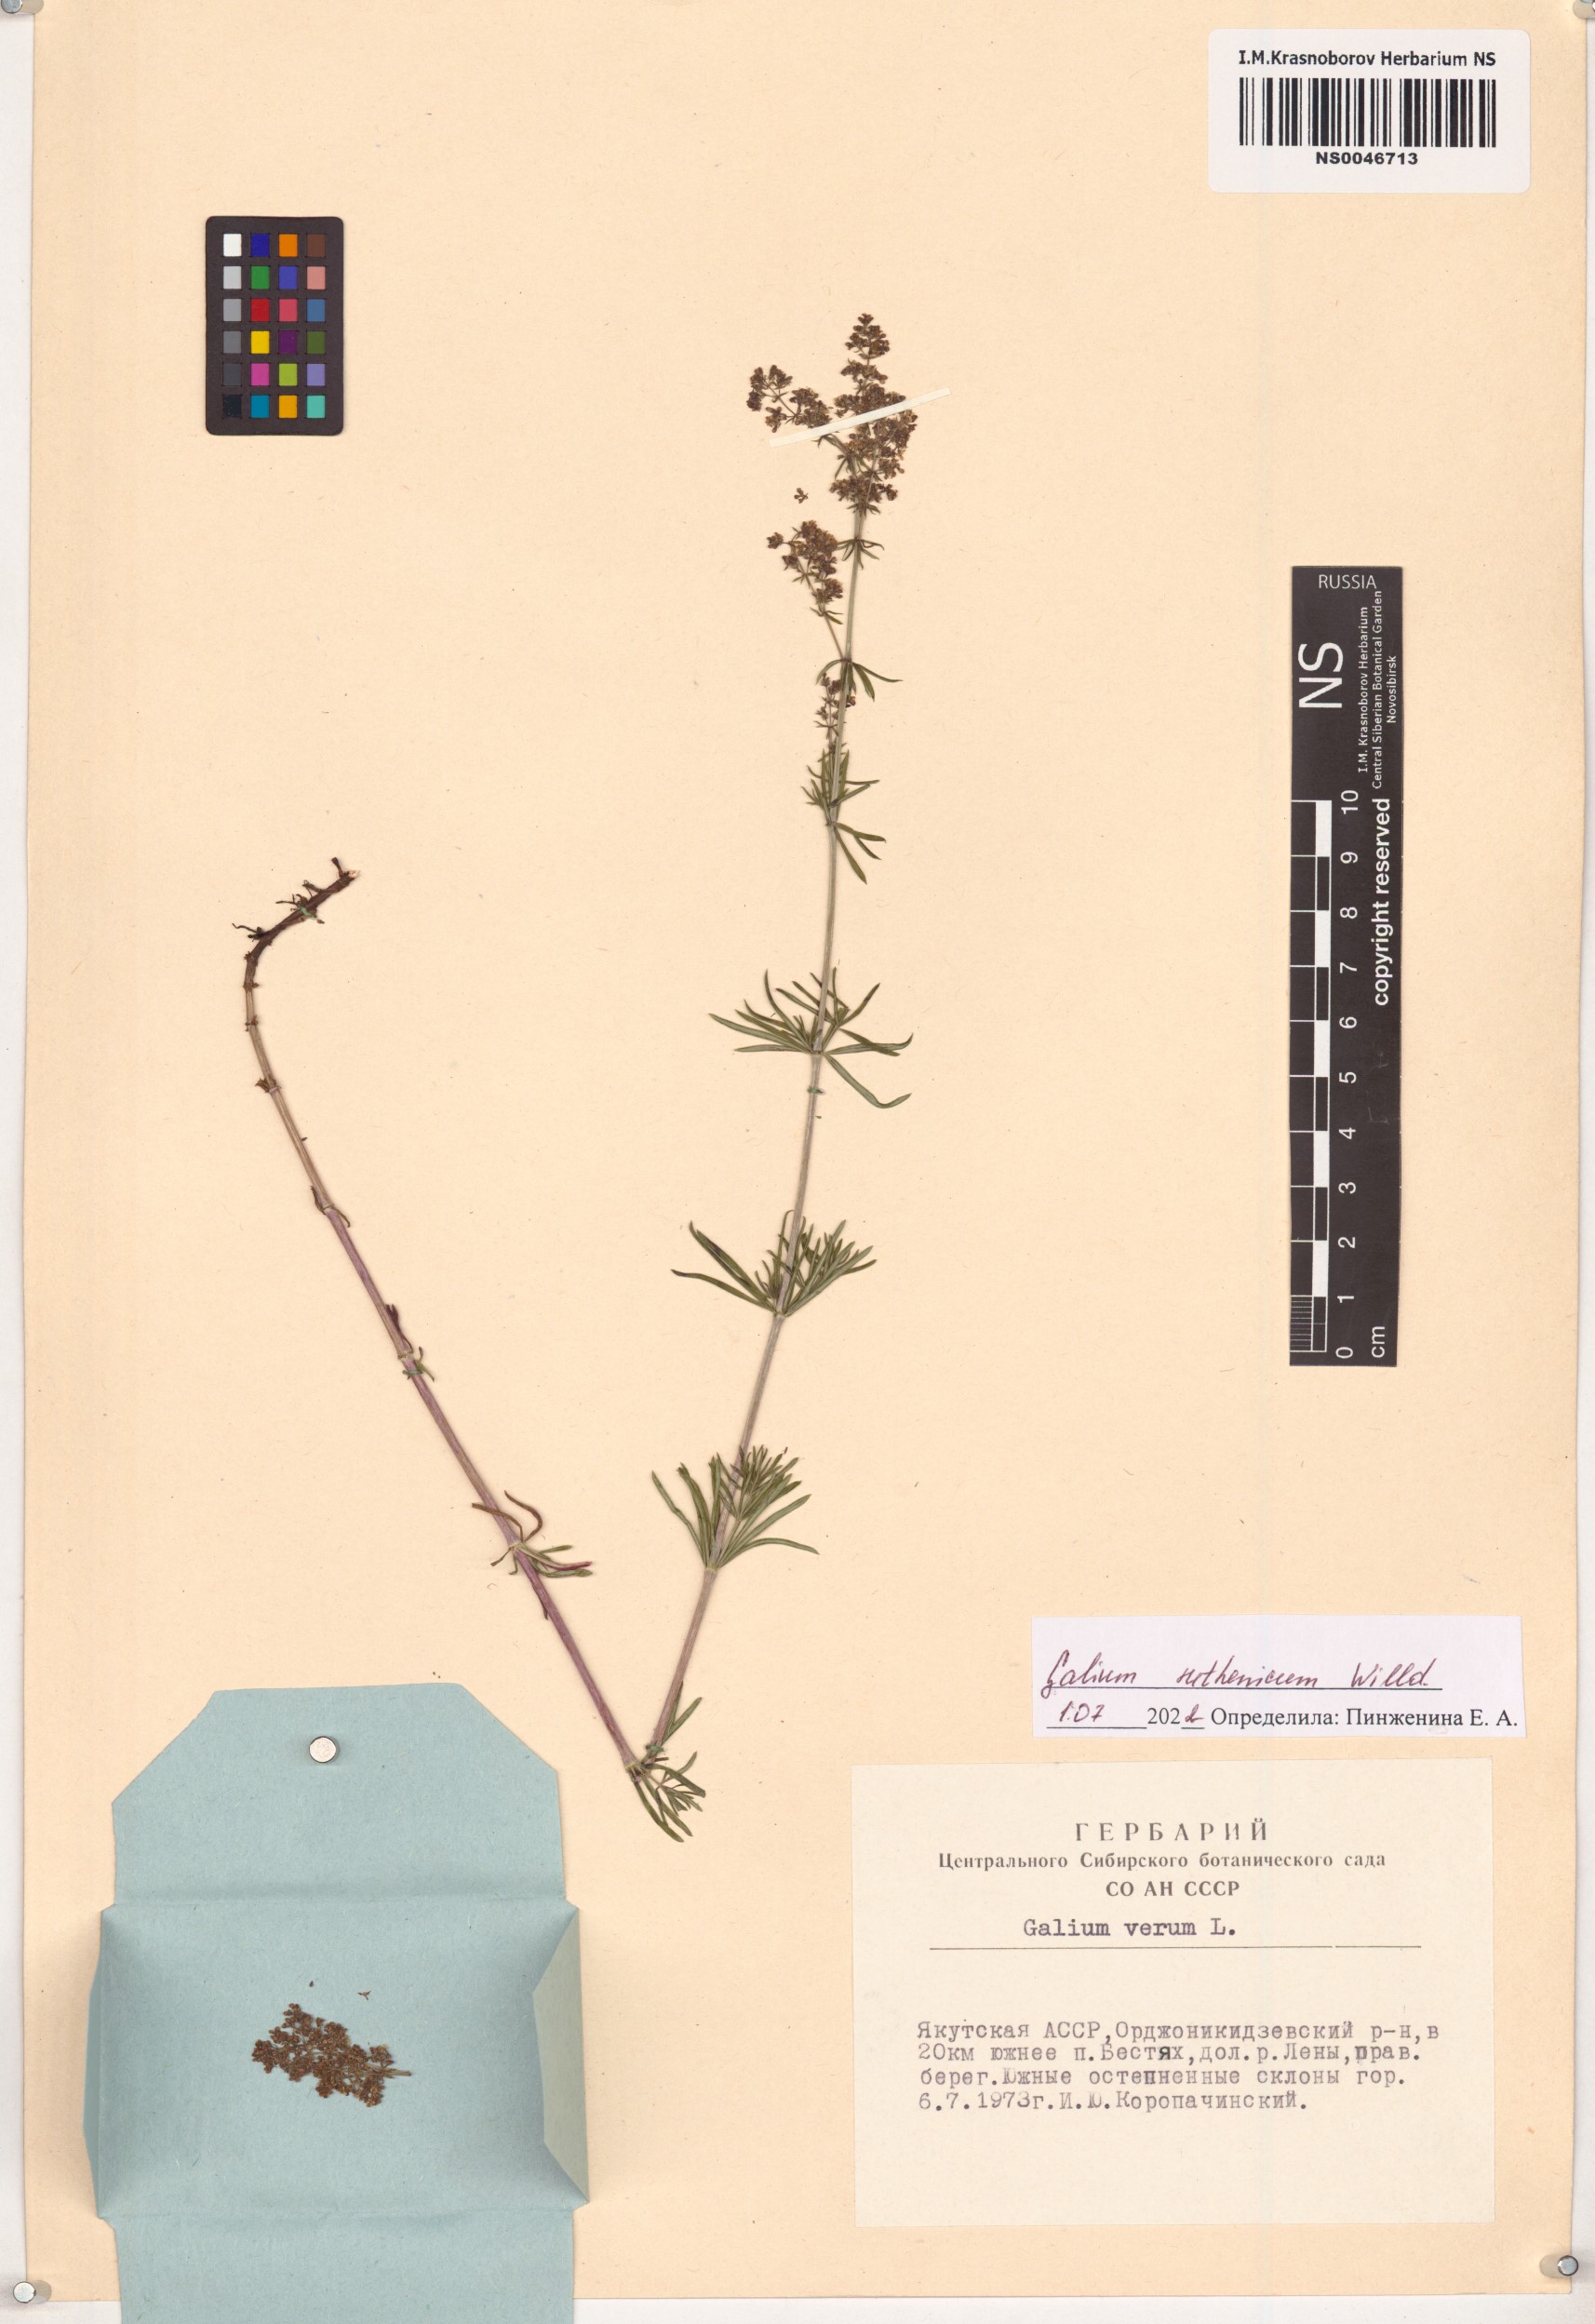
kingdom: Plantae
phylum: Tracheophyta
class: Magnoliopsida
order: Gentianales
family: Rubiaceae
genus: Galium
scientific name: Galium verum
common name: Lady's bedstraw
